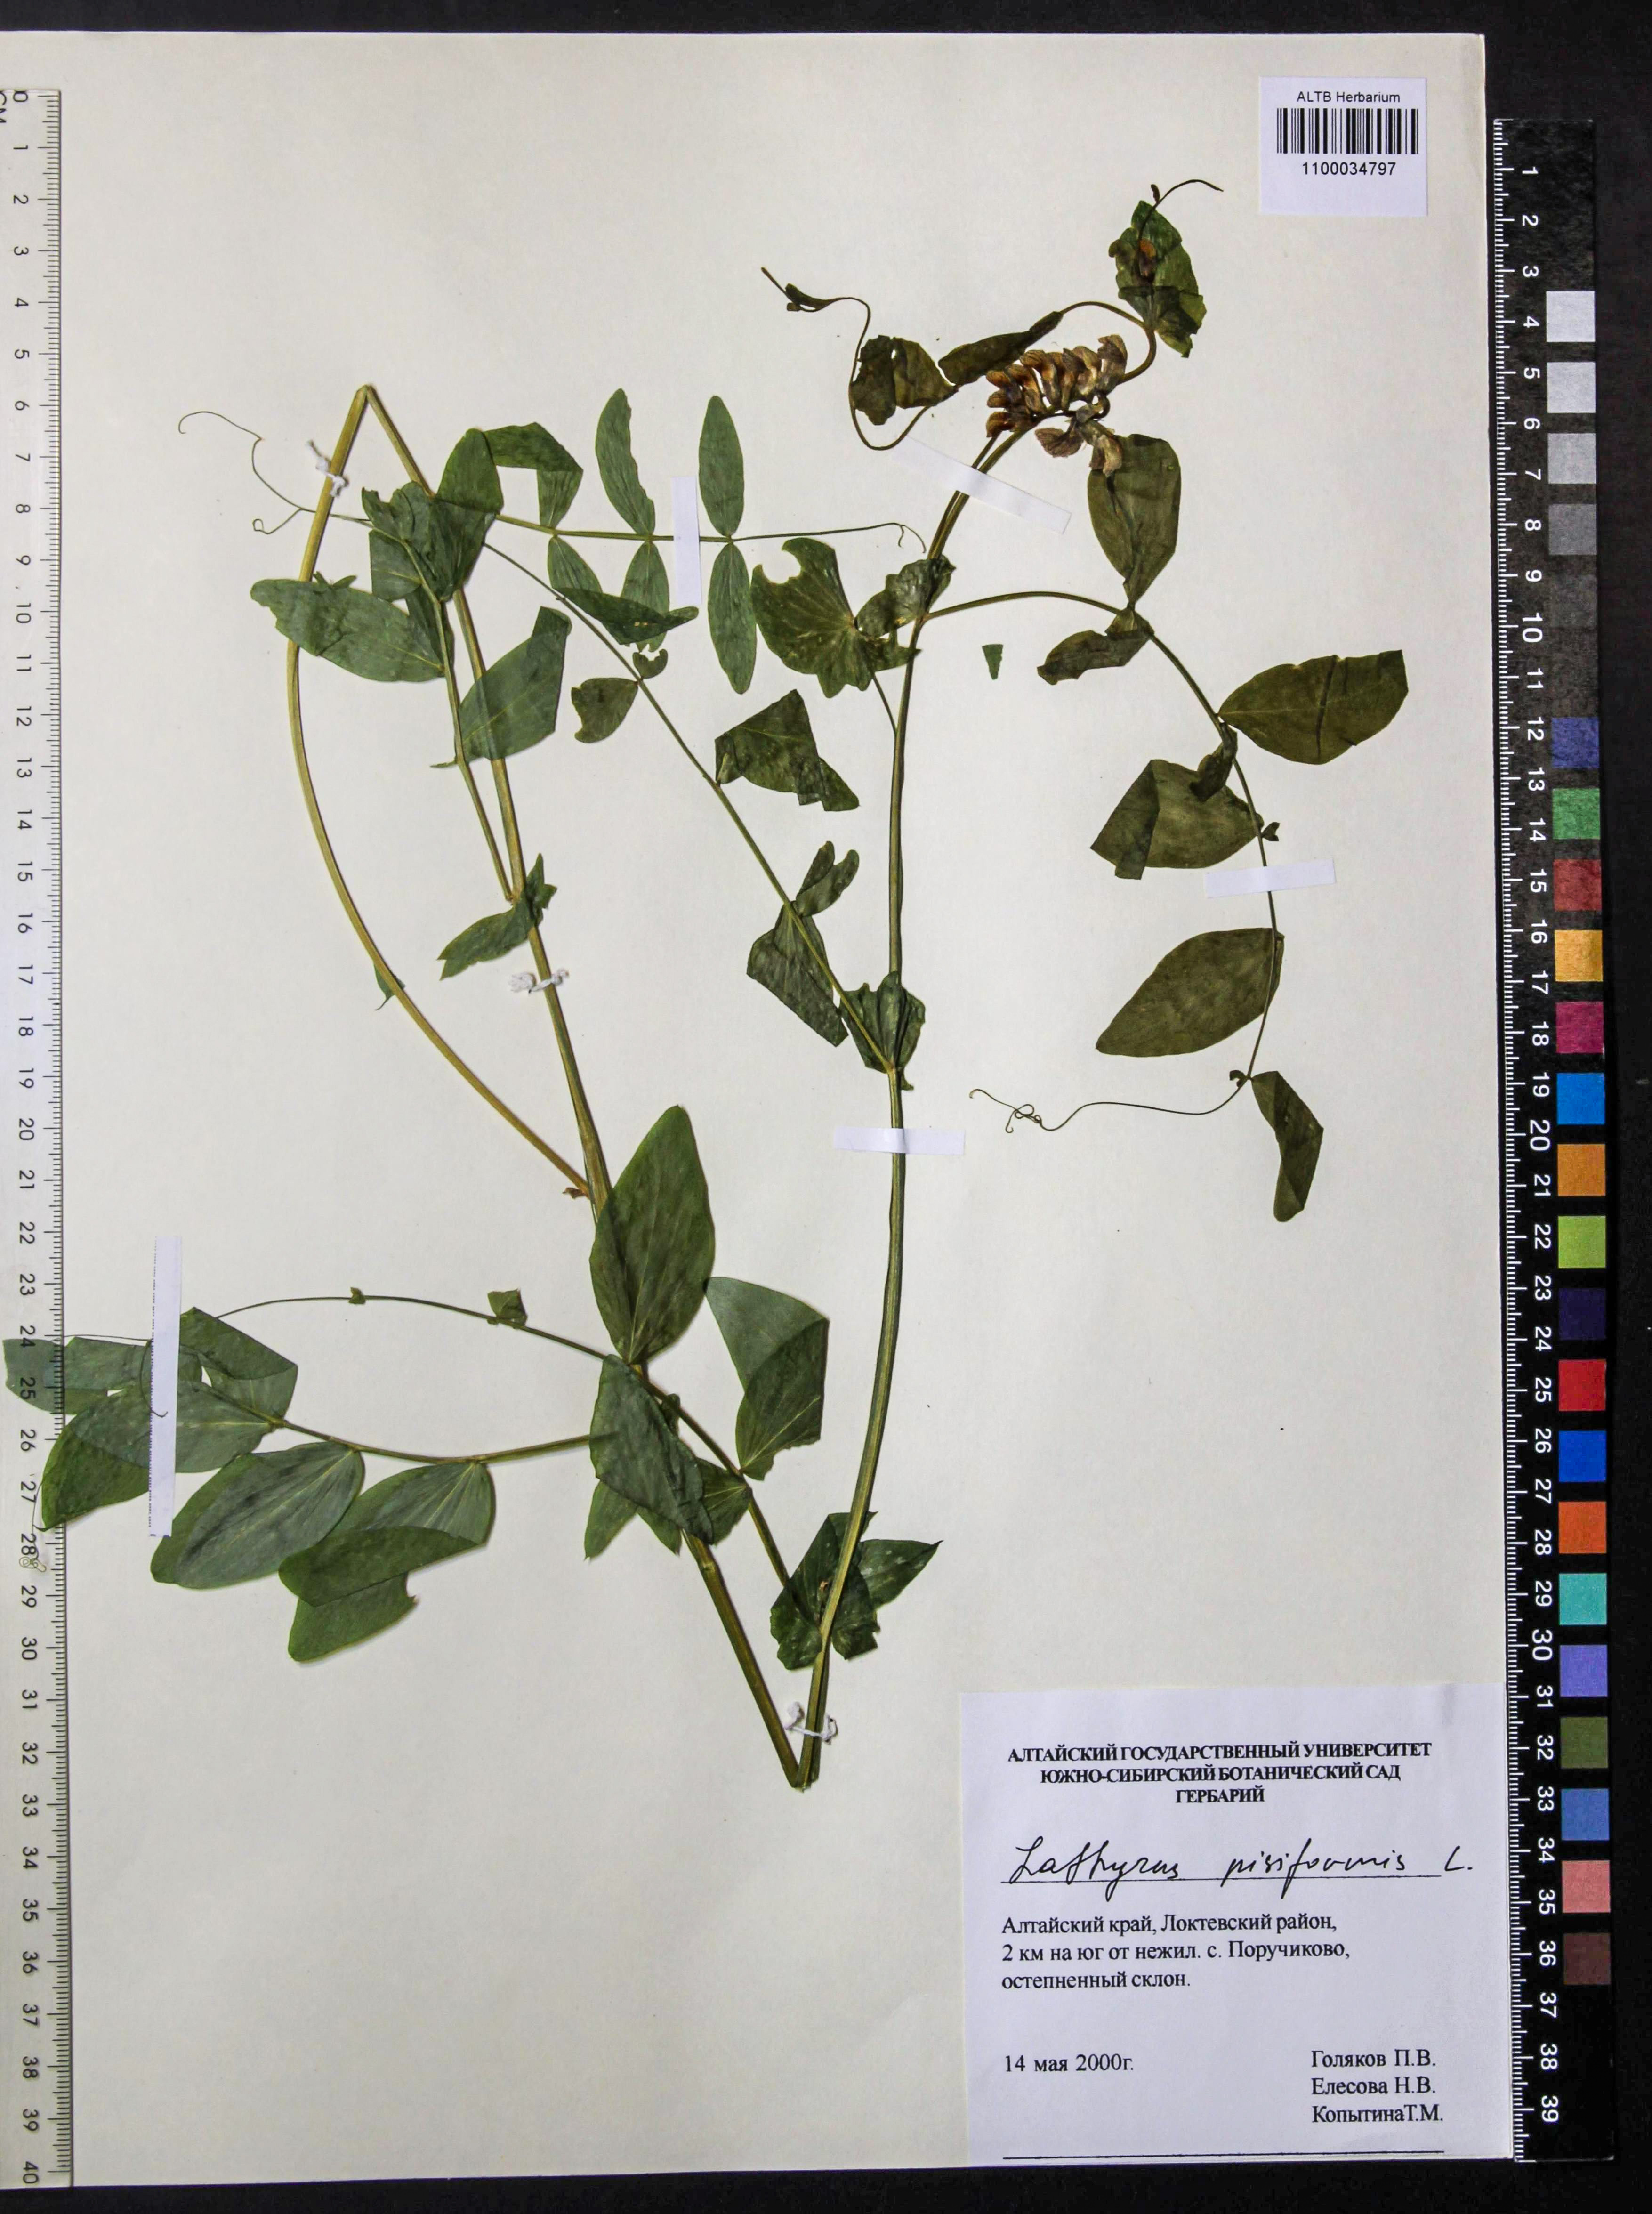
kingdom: Plantae
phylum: Tracheophyta
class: Magnoliopsida
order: Fabales
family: Fabaceae
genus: Lathyrus
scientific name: Lathyrus pisiformis
